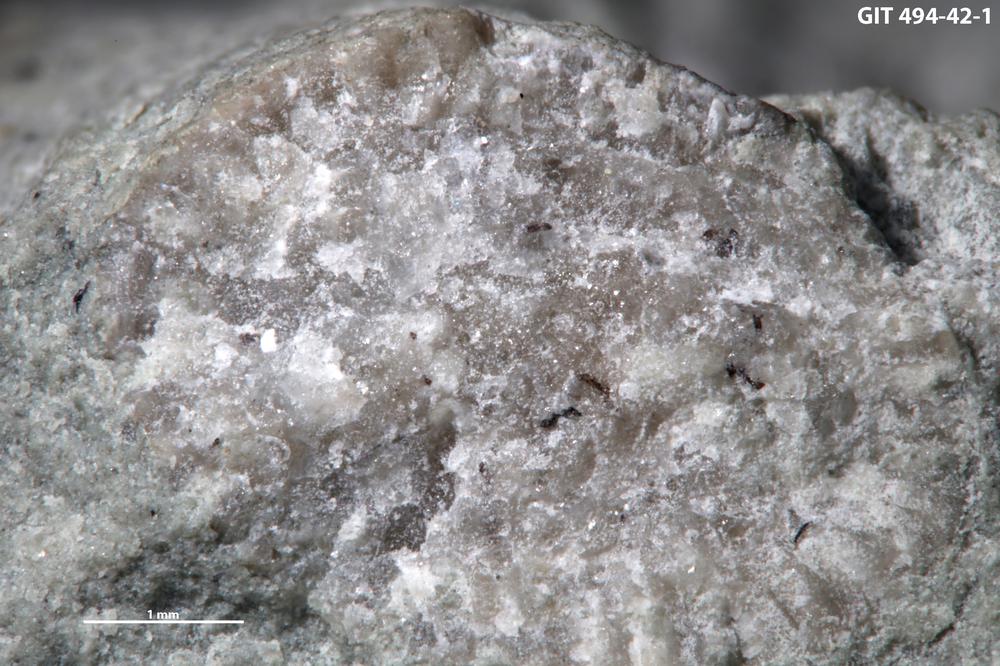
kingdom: Plantae
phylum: Tracheophyta
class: Pinopsida
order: Pinales
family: Cupressaceae
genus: Platycladus
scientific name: Platycladus
